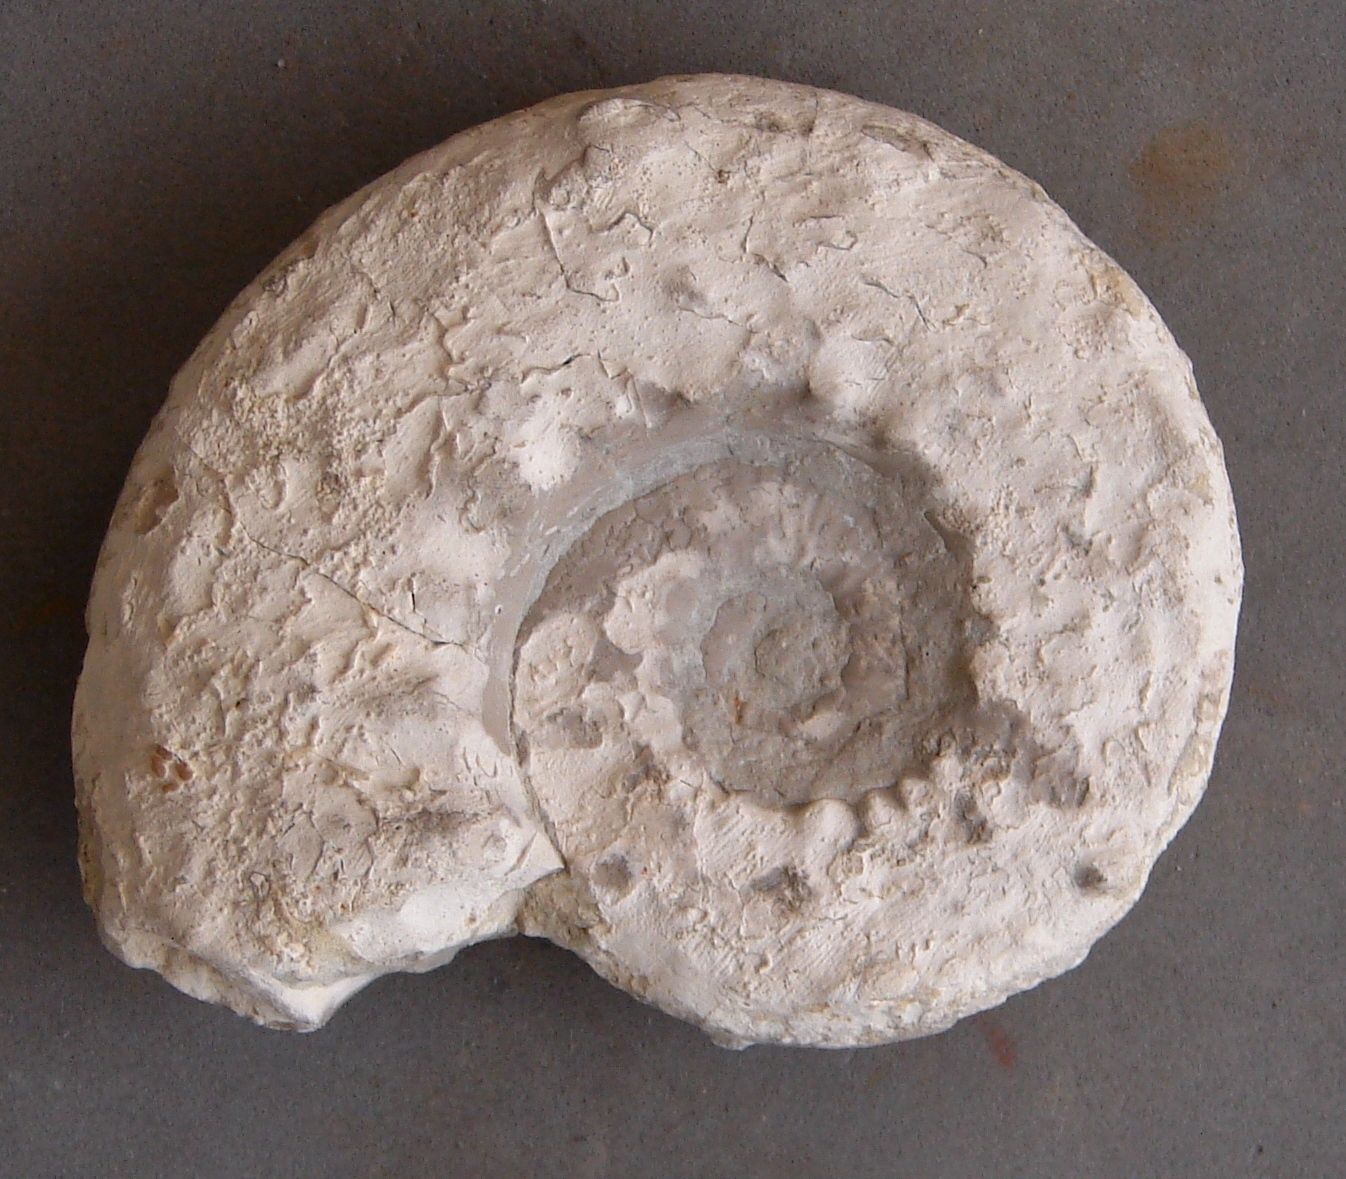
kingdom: Animalia
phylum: Mollusca
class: Cephalopoda
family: Aspidoceratidae
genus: Aspidoceras
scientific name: Aspidoceras
